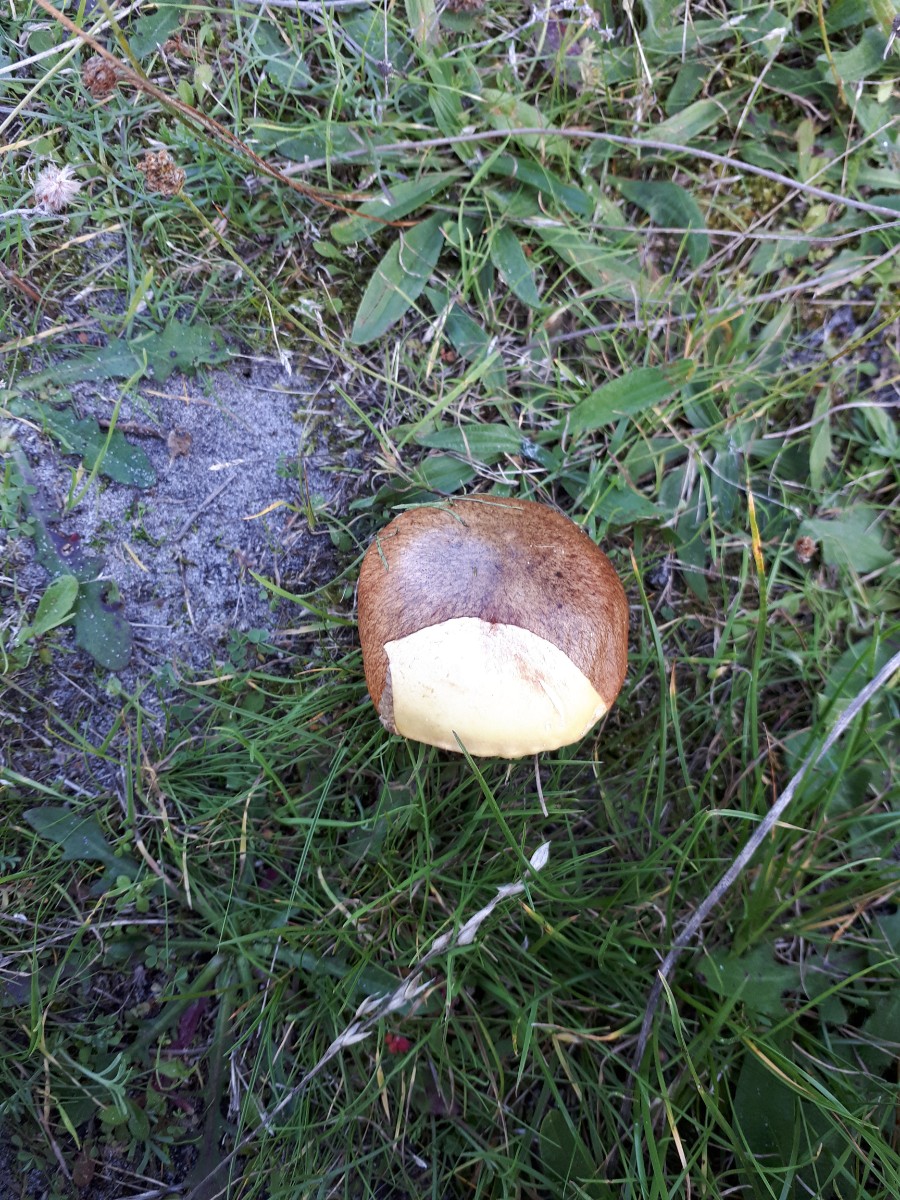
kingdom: Fungi
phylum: Basidiomycota
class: Agaricomycetes
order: Boletales
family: Suillaceae
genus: Suillus
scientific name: Suillus luteus
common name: brungul slimrørhat
